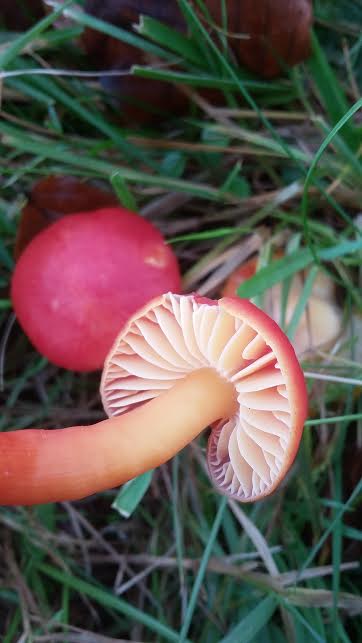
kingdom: Fungi
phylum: Basidiomycota
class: Agaricomycetes
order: Agaricales
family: Hygrophoraceae
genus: Hygrocybe
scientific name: Hygrocybe coccinea
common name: cinnober-vokshat
